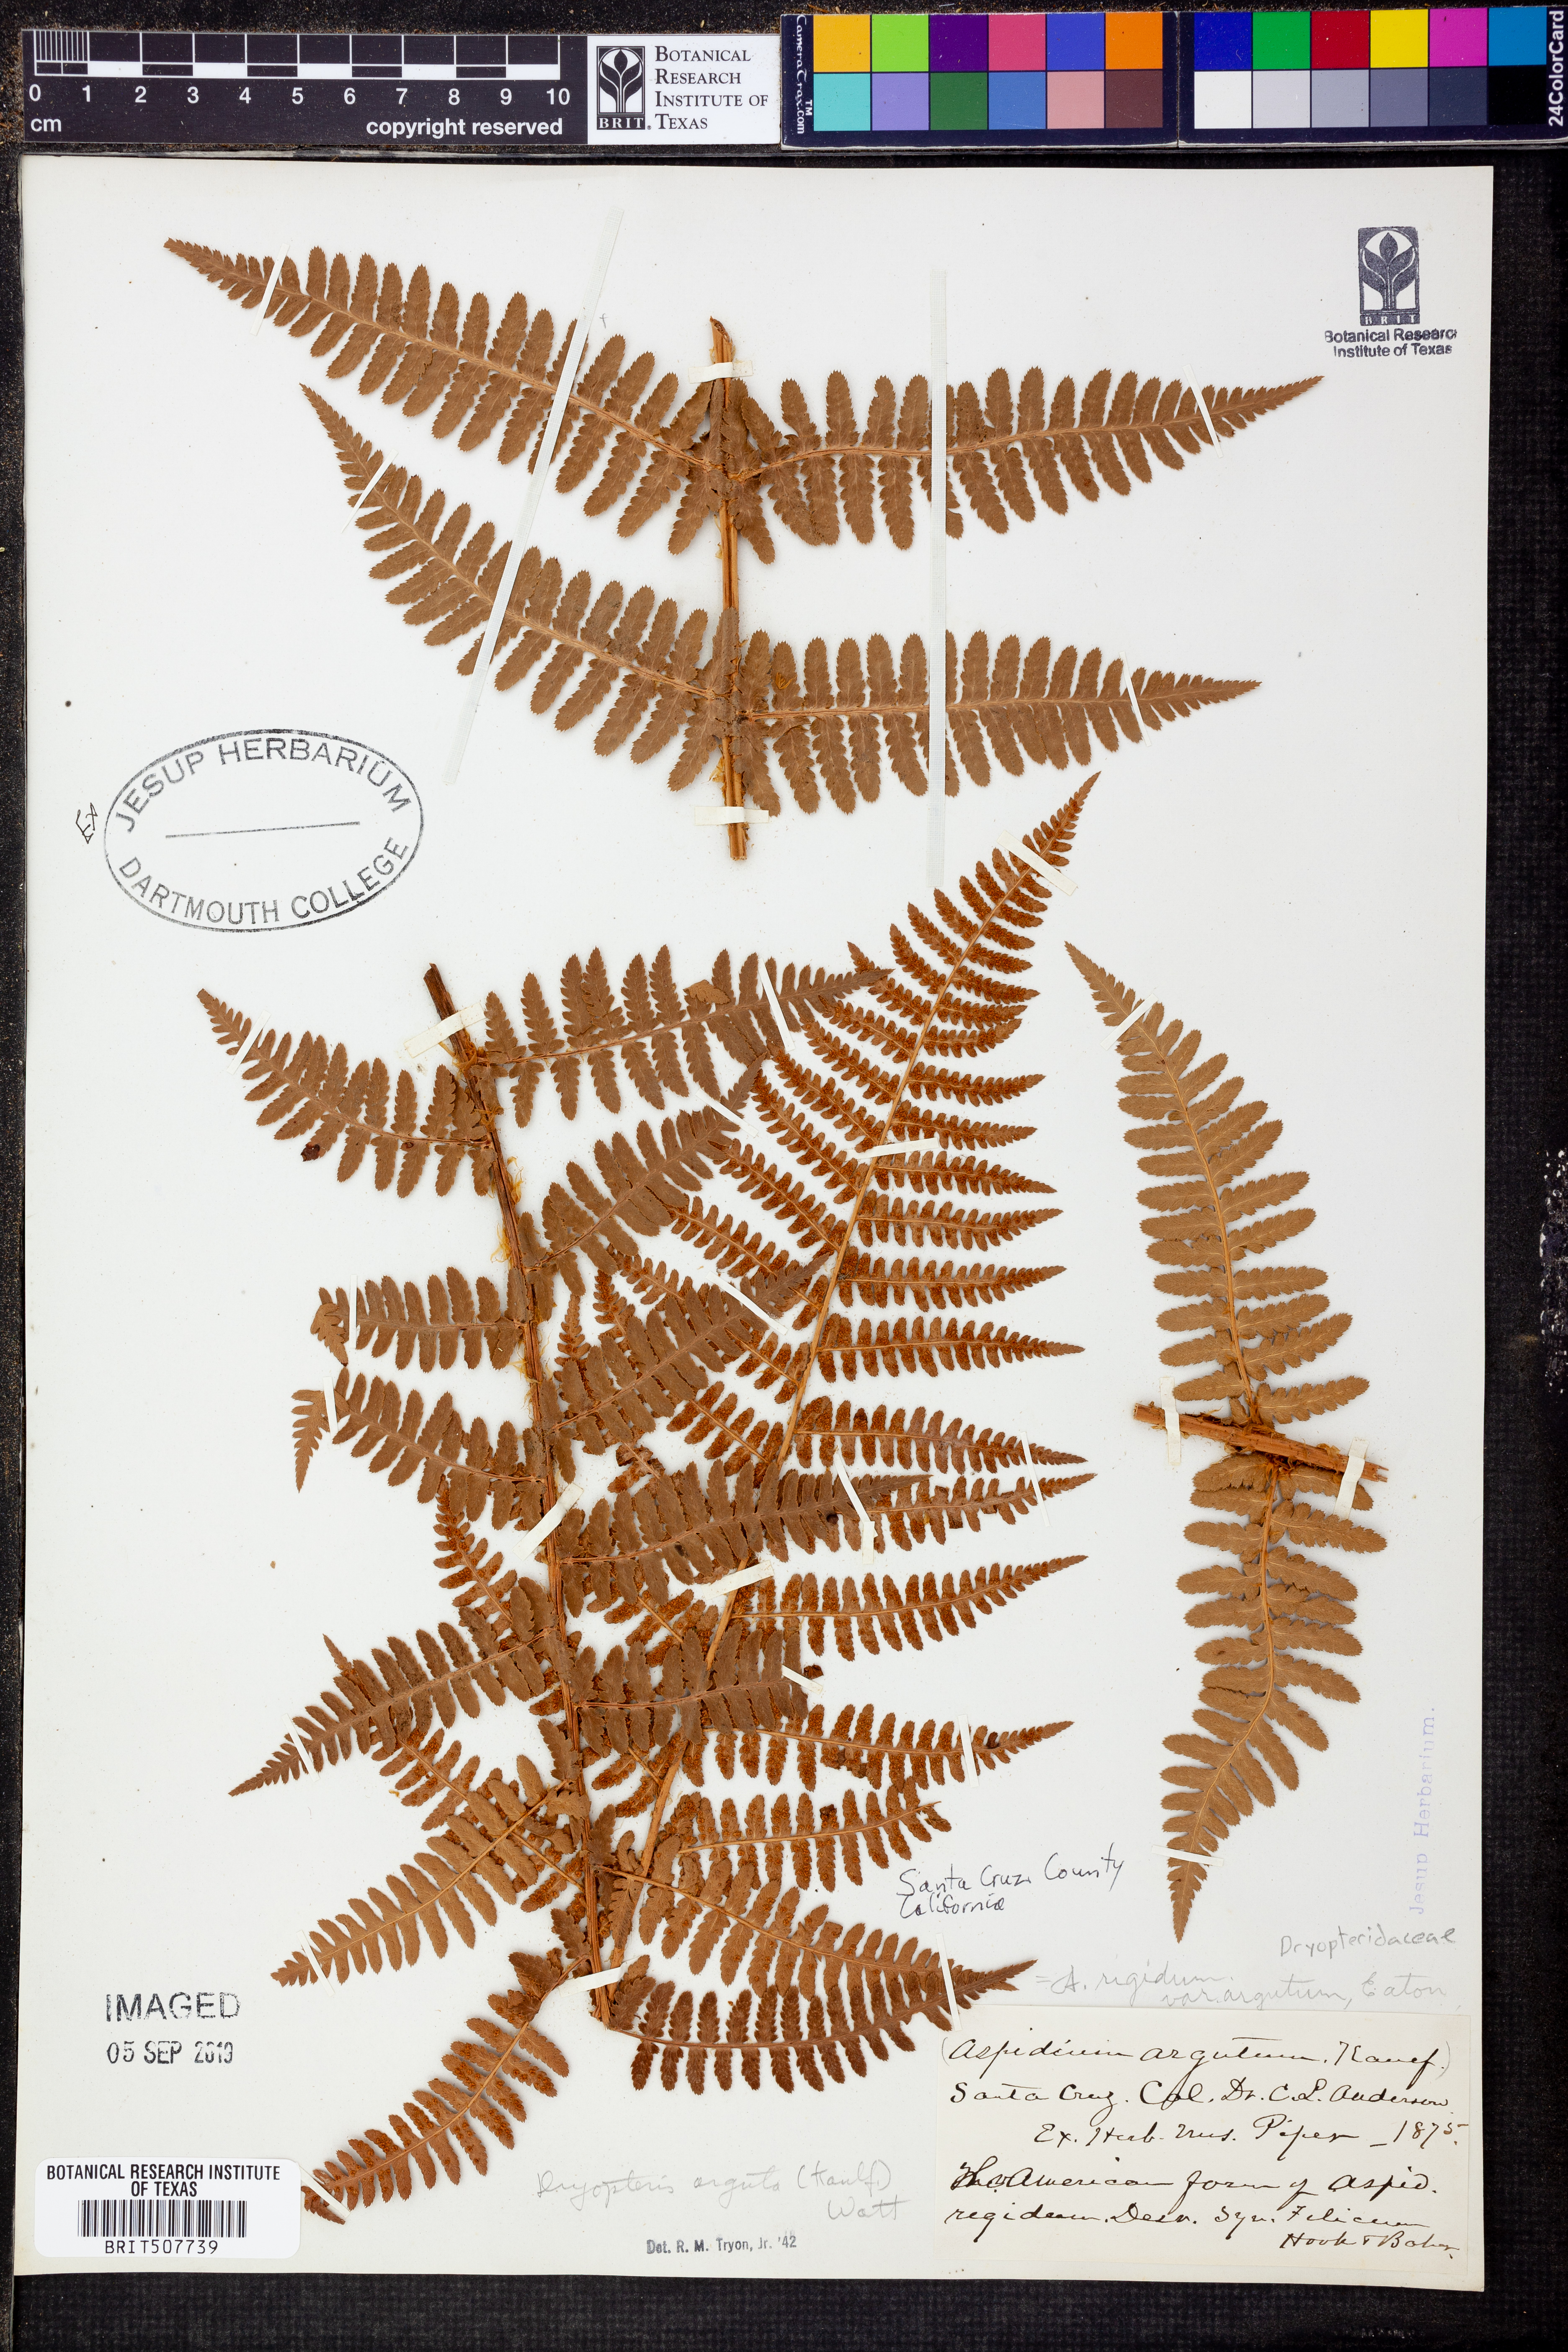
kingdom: Plantae
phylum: Tracheophyta
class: Polypodiopsida
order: Polypodiales
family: Dryopteridaceae
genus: Dryopteris
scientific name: Dryopteris arguta
